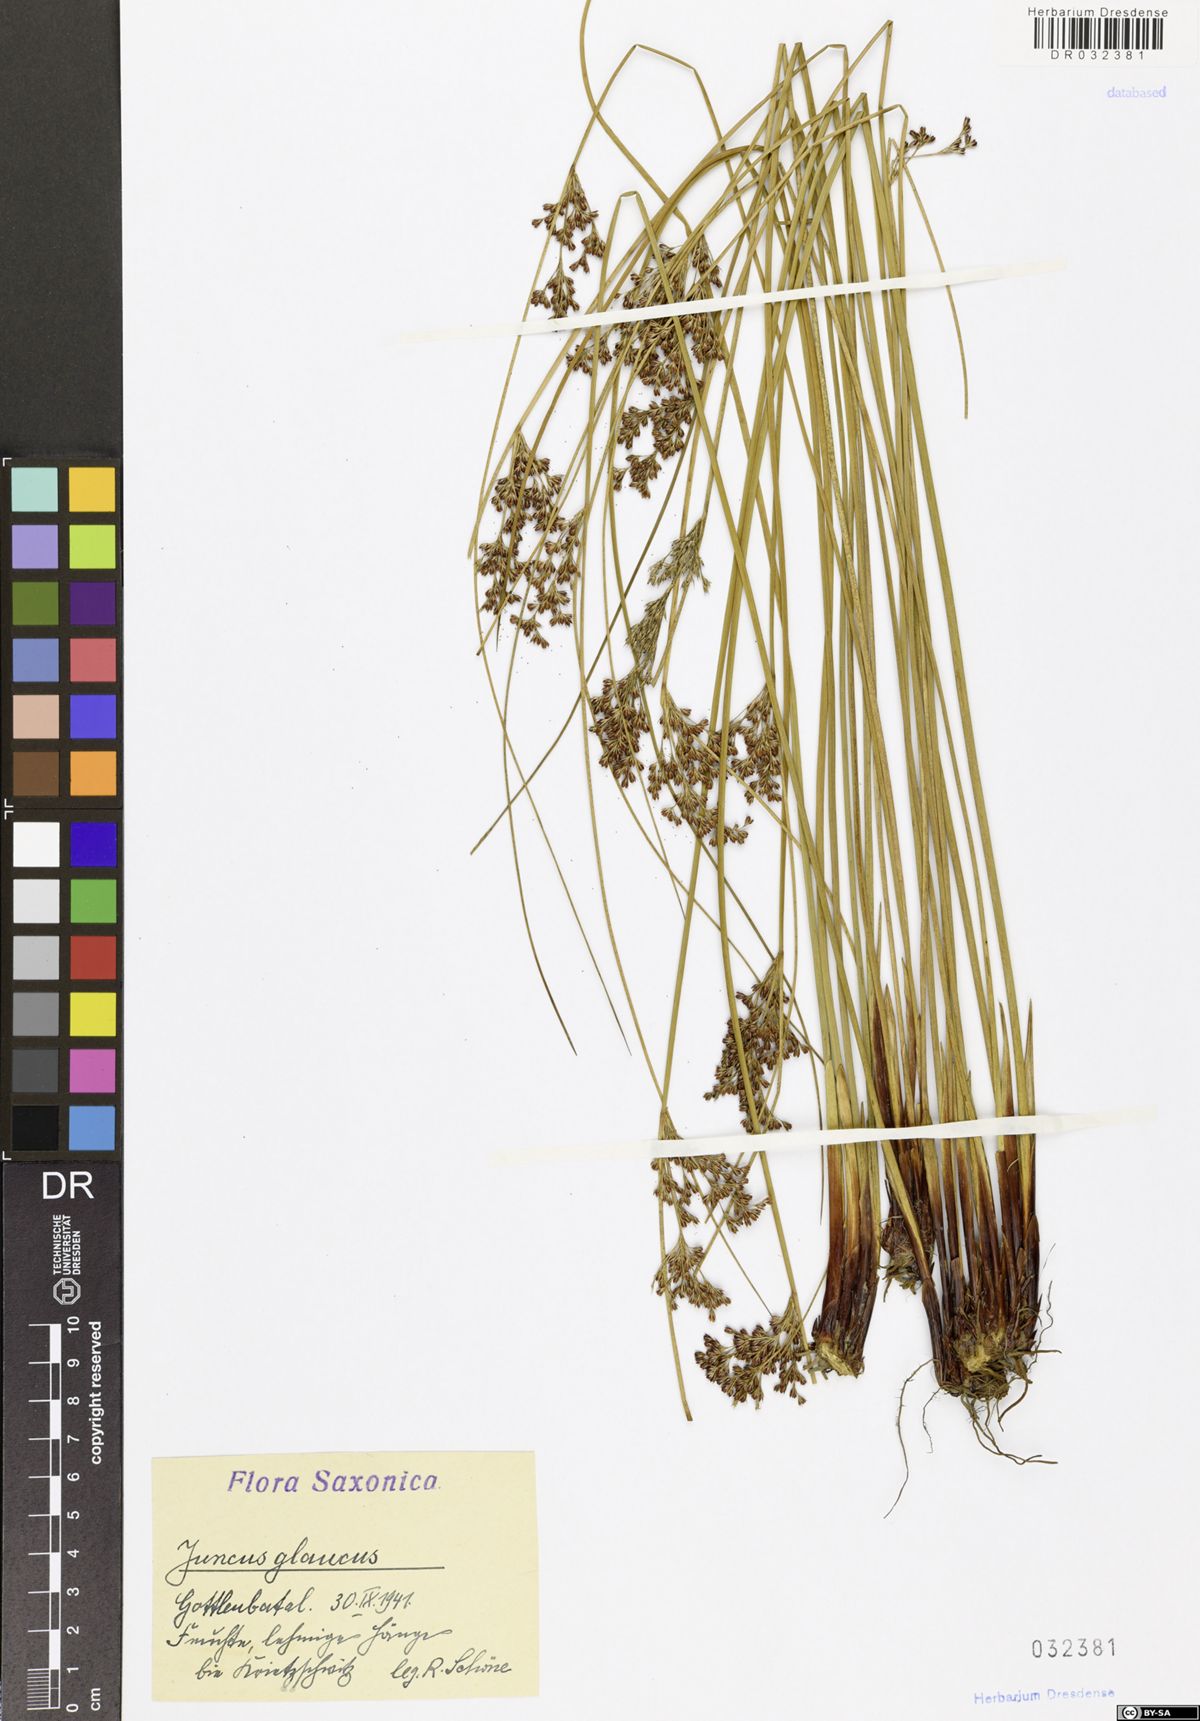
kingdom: Plantae
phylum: Tracheophyta
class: Liliopsida
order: Poales
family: Juncaceae
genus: Juncus
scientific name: Juncus inflexus
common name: Hard rush
